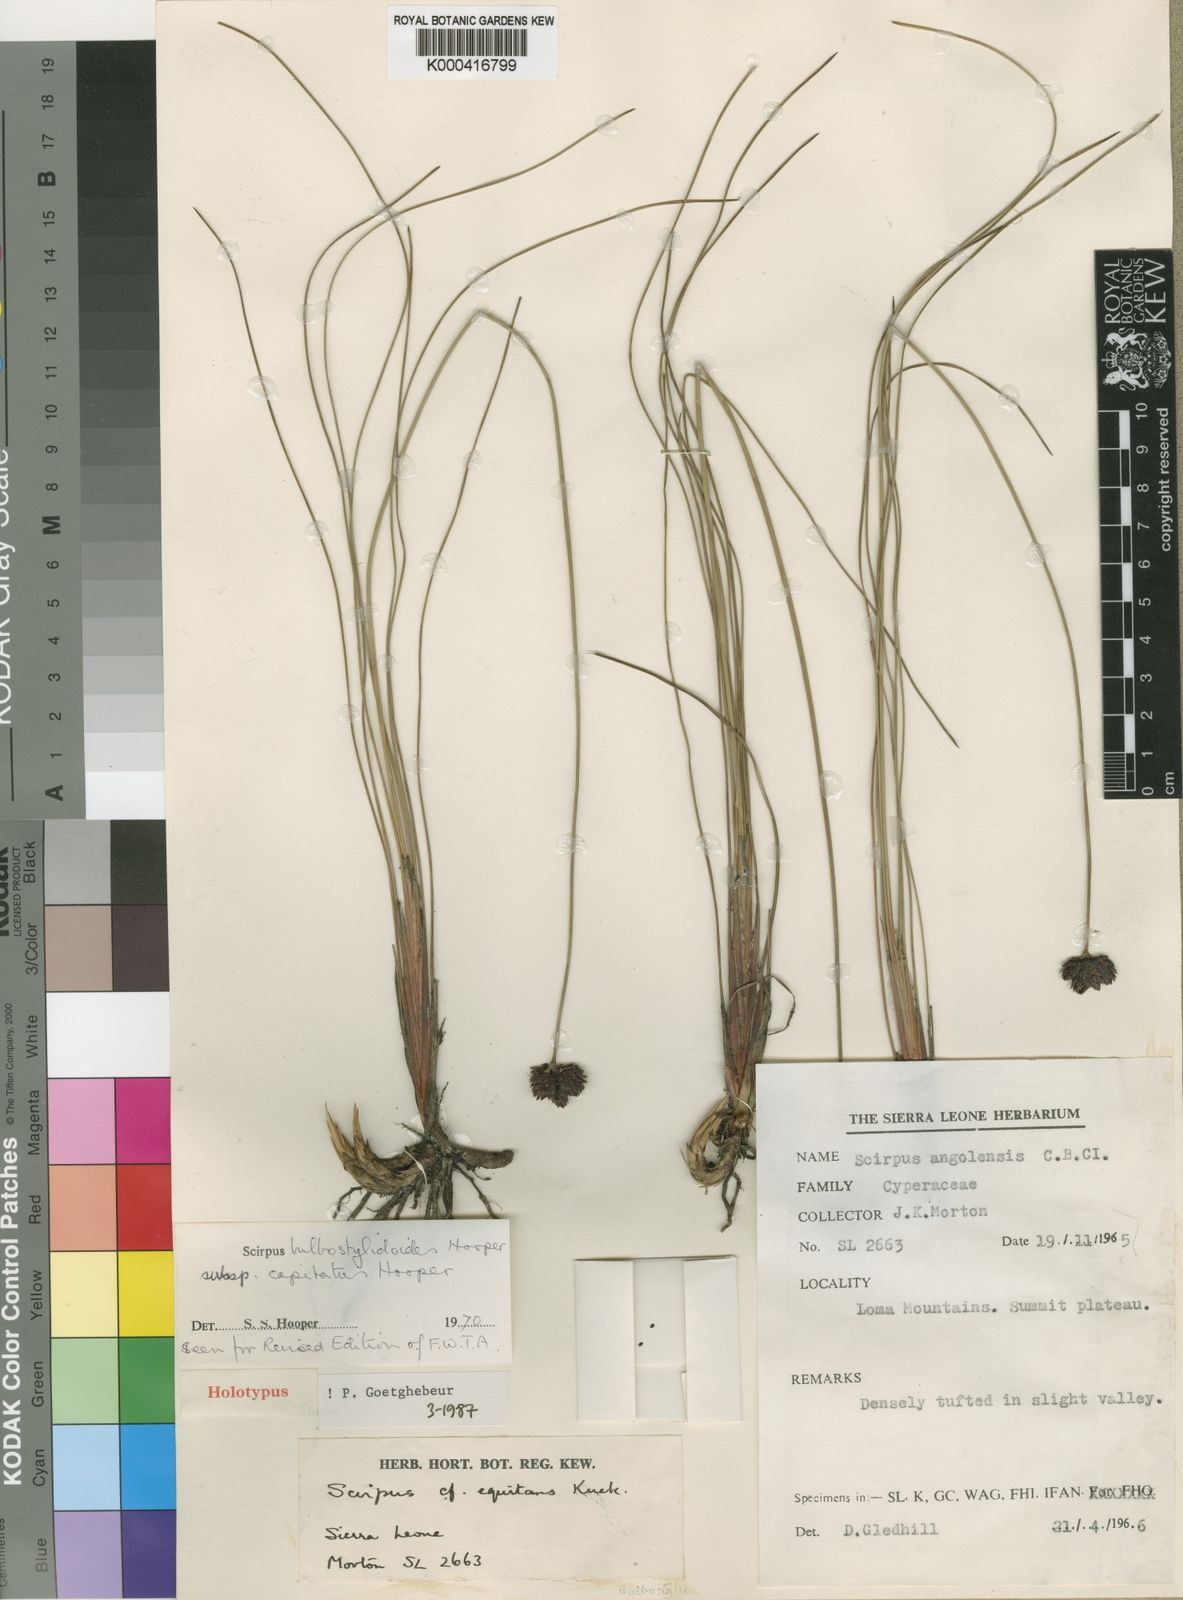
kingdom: Plantae
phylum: Tracheophyta
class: Liliopsida
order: Poales
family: Cyperaceae
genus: Bulbostylis
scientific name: Bulbostylis bulbostyloides
